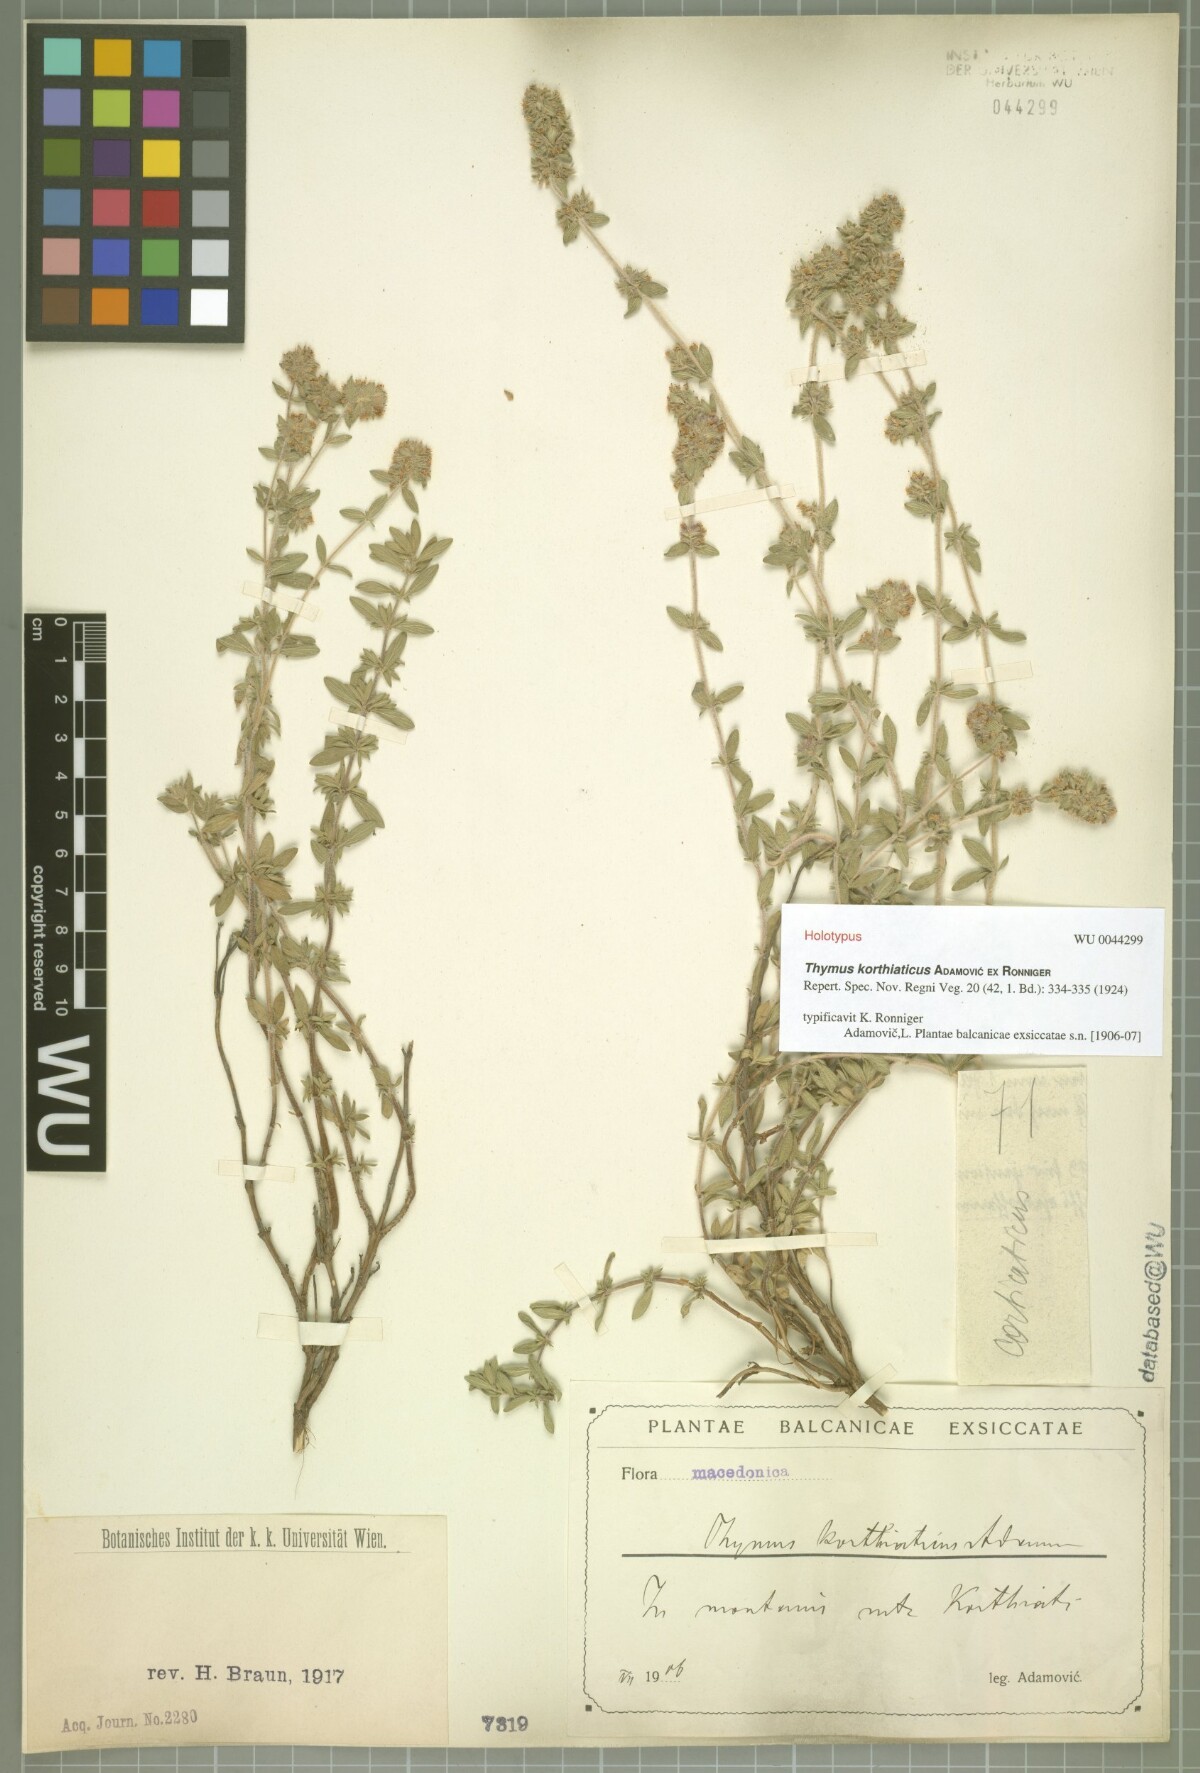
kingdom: Plantae
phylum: Tracheophyta
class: Magnoliopsida
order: Lamiales
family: Lamiaceae
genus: Thymus
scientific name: Thymus sibthorpii
